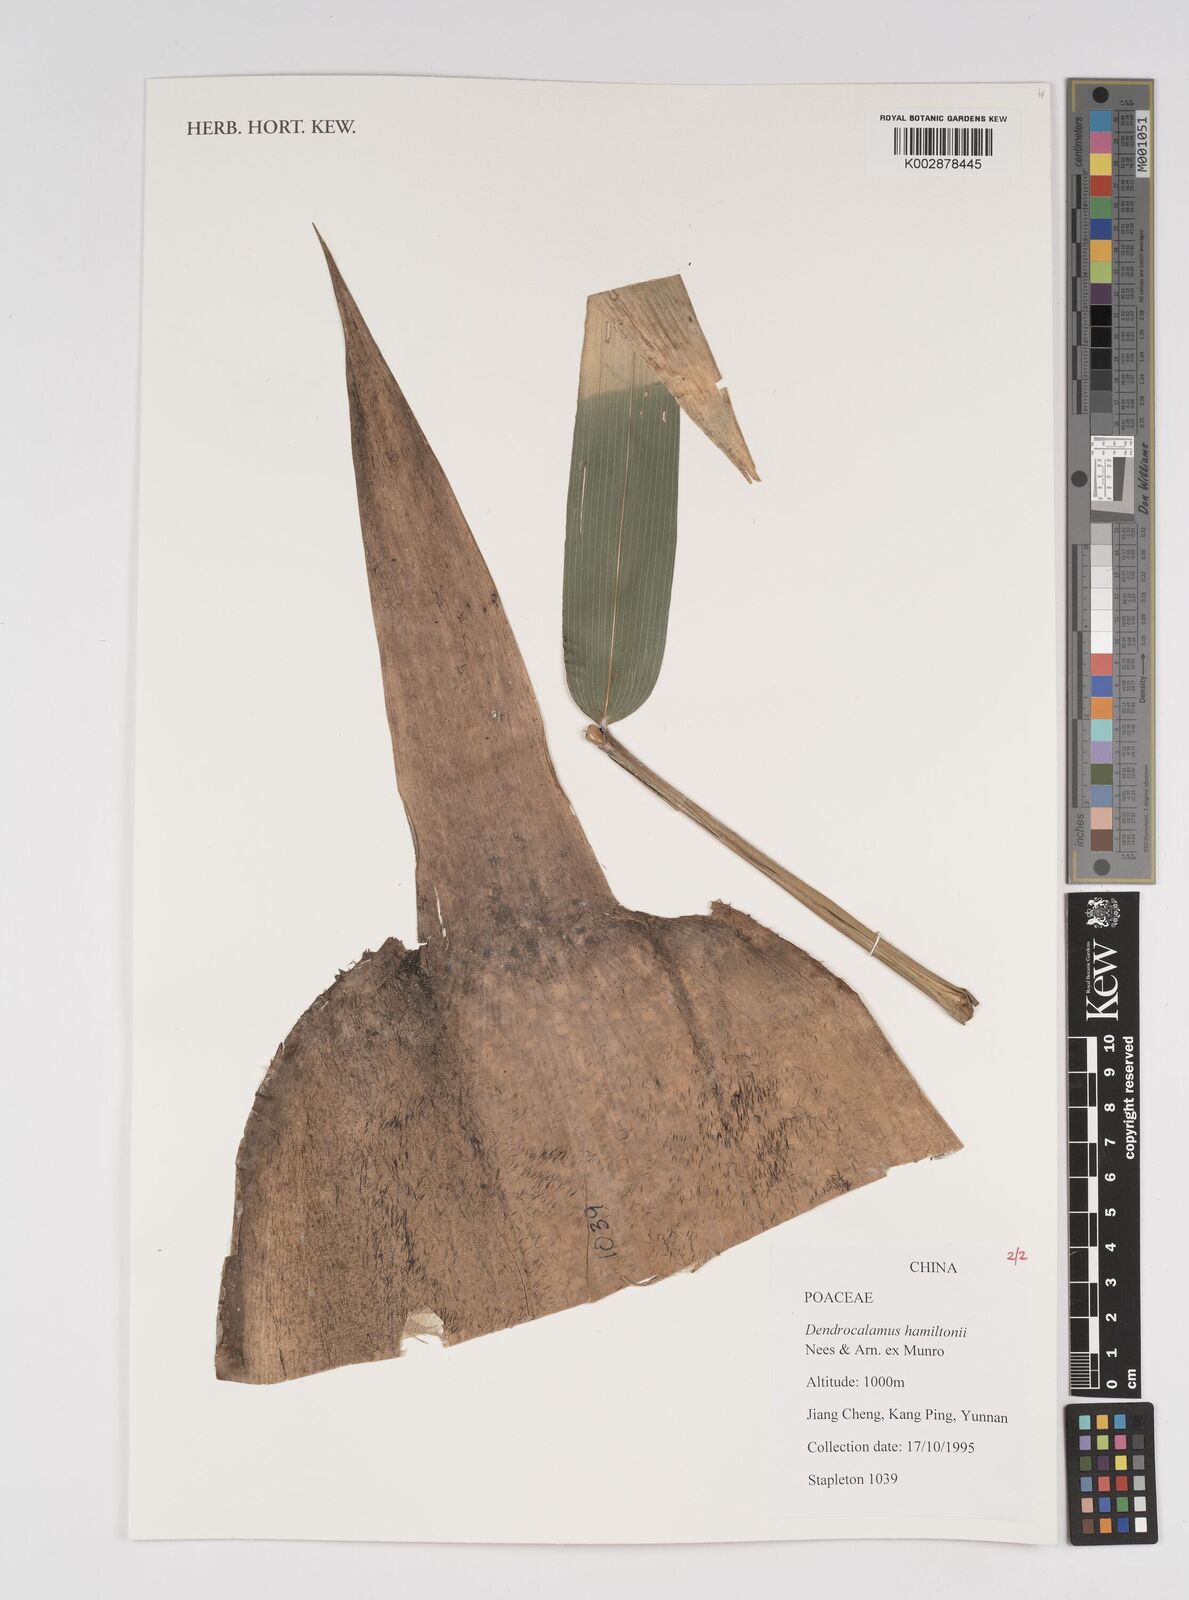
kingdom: Plantae
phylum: Tracheophyta
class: Liliopsida
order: Poales
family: Poaceae
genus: Dendrocalamus
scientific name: Dendrocalamus hamiltonii
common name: Tama bamboo
